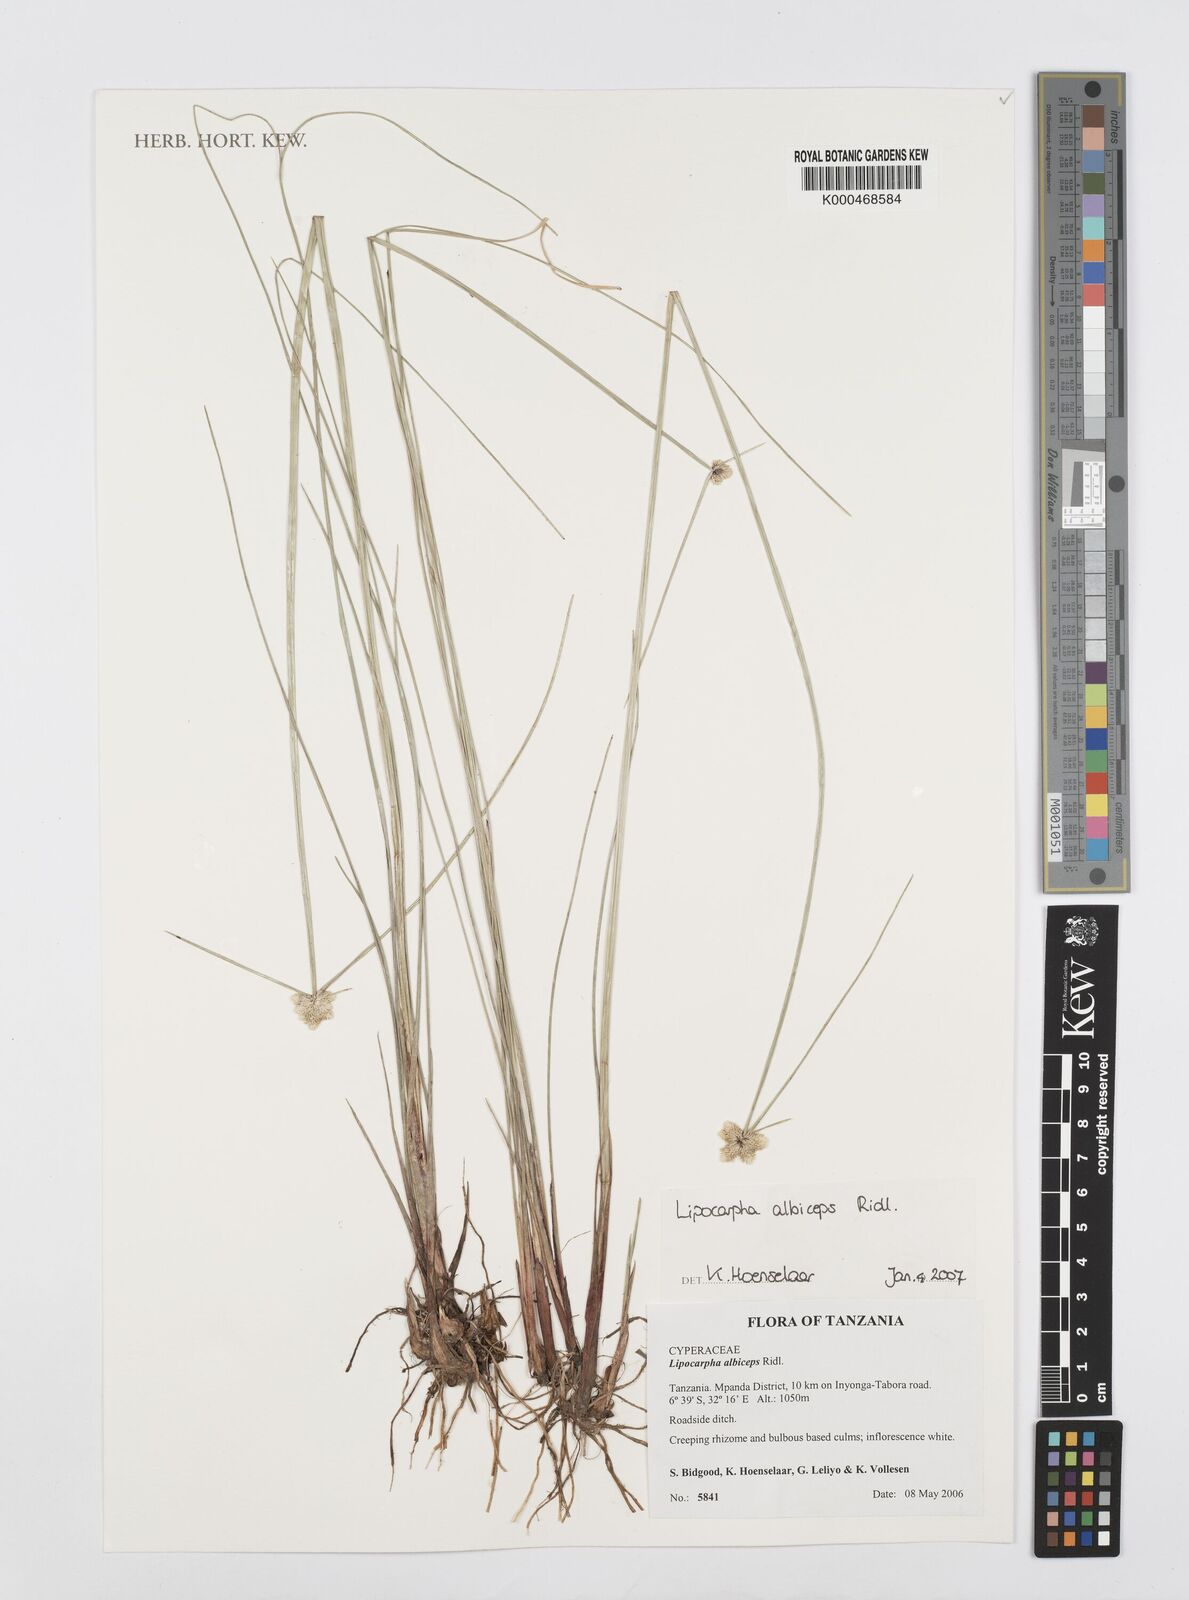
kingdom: Plantae
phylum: Tracheophyta
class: Liliopsida
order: Poales
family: Cyperaceae
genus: Cyperus
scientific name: Cyperus purpureoluteus
